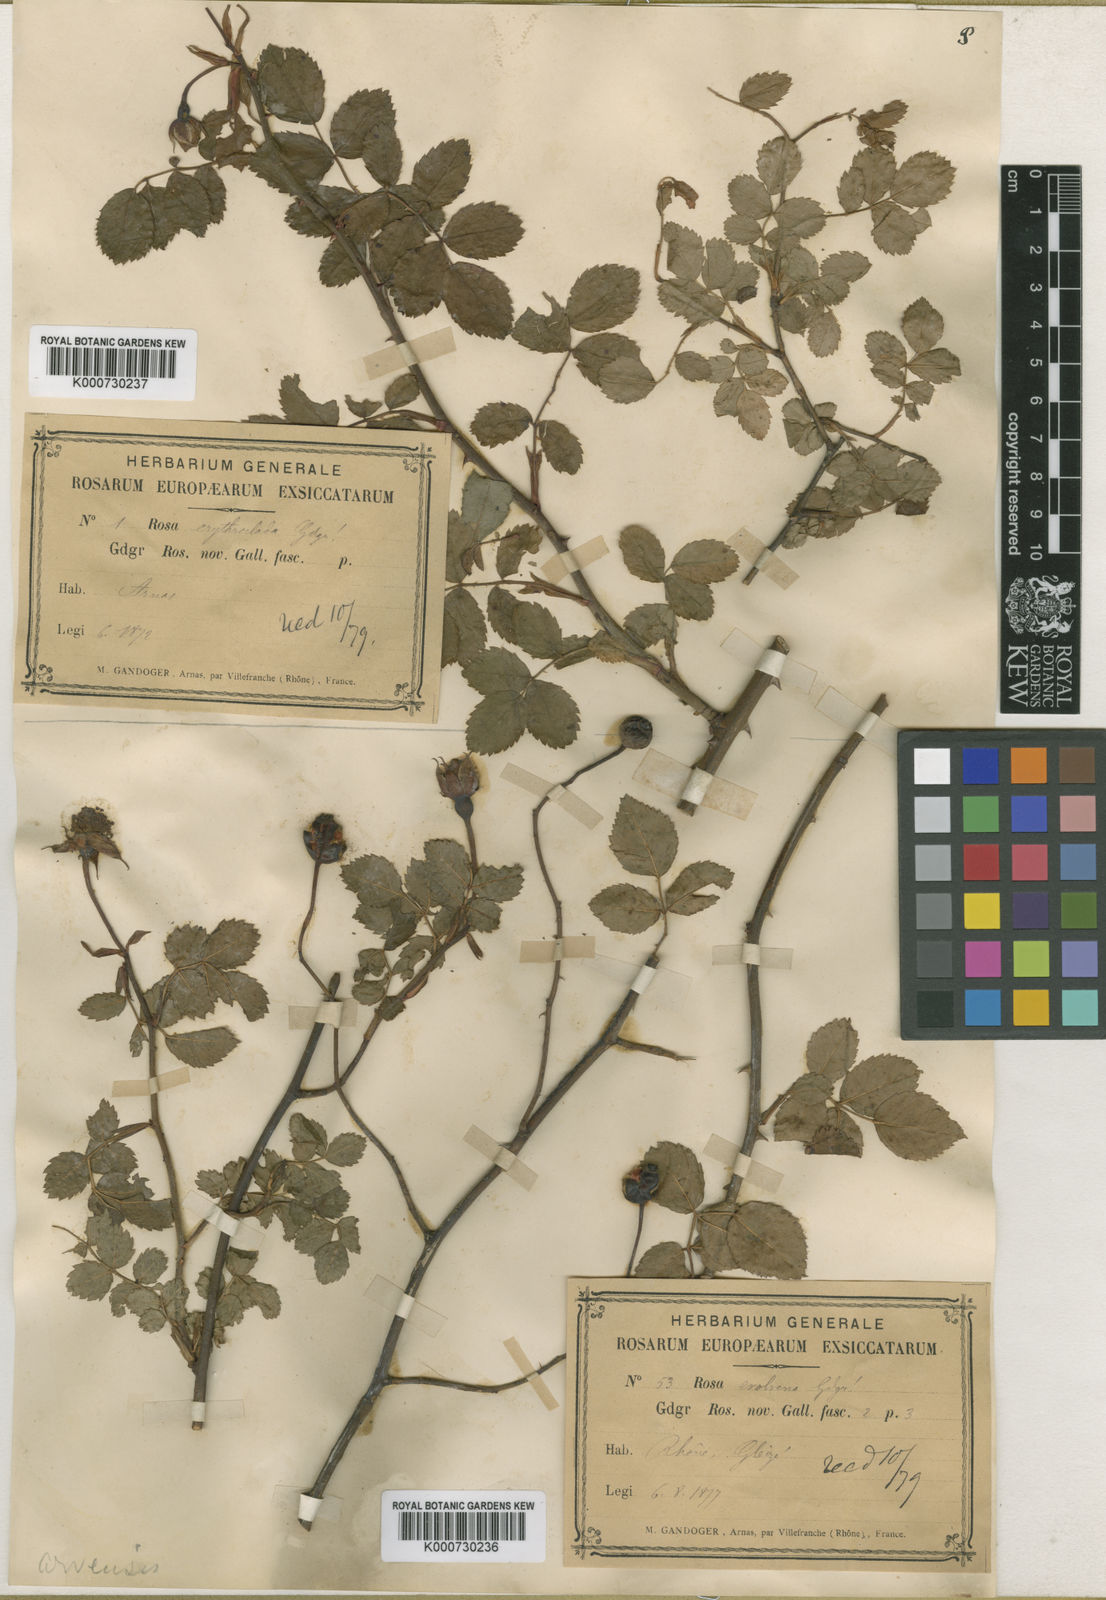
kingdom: Plantae
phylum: Tracheophyta
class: Magnoliopsida
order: Rosales
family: Rosaceae
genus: Rosa
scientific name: Rosa arvensis
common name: Field rose
